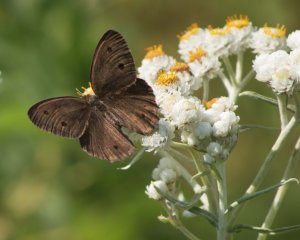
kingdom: Animalia
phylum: Arthropoda
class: Insecta
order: Lepidoptera
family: Nymphalidae
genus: Cercyonis
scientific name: Cercyonis pegala
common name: Common Wood-Nymph
